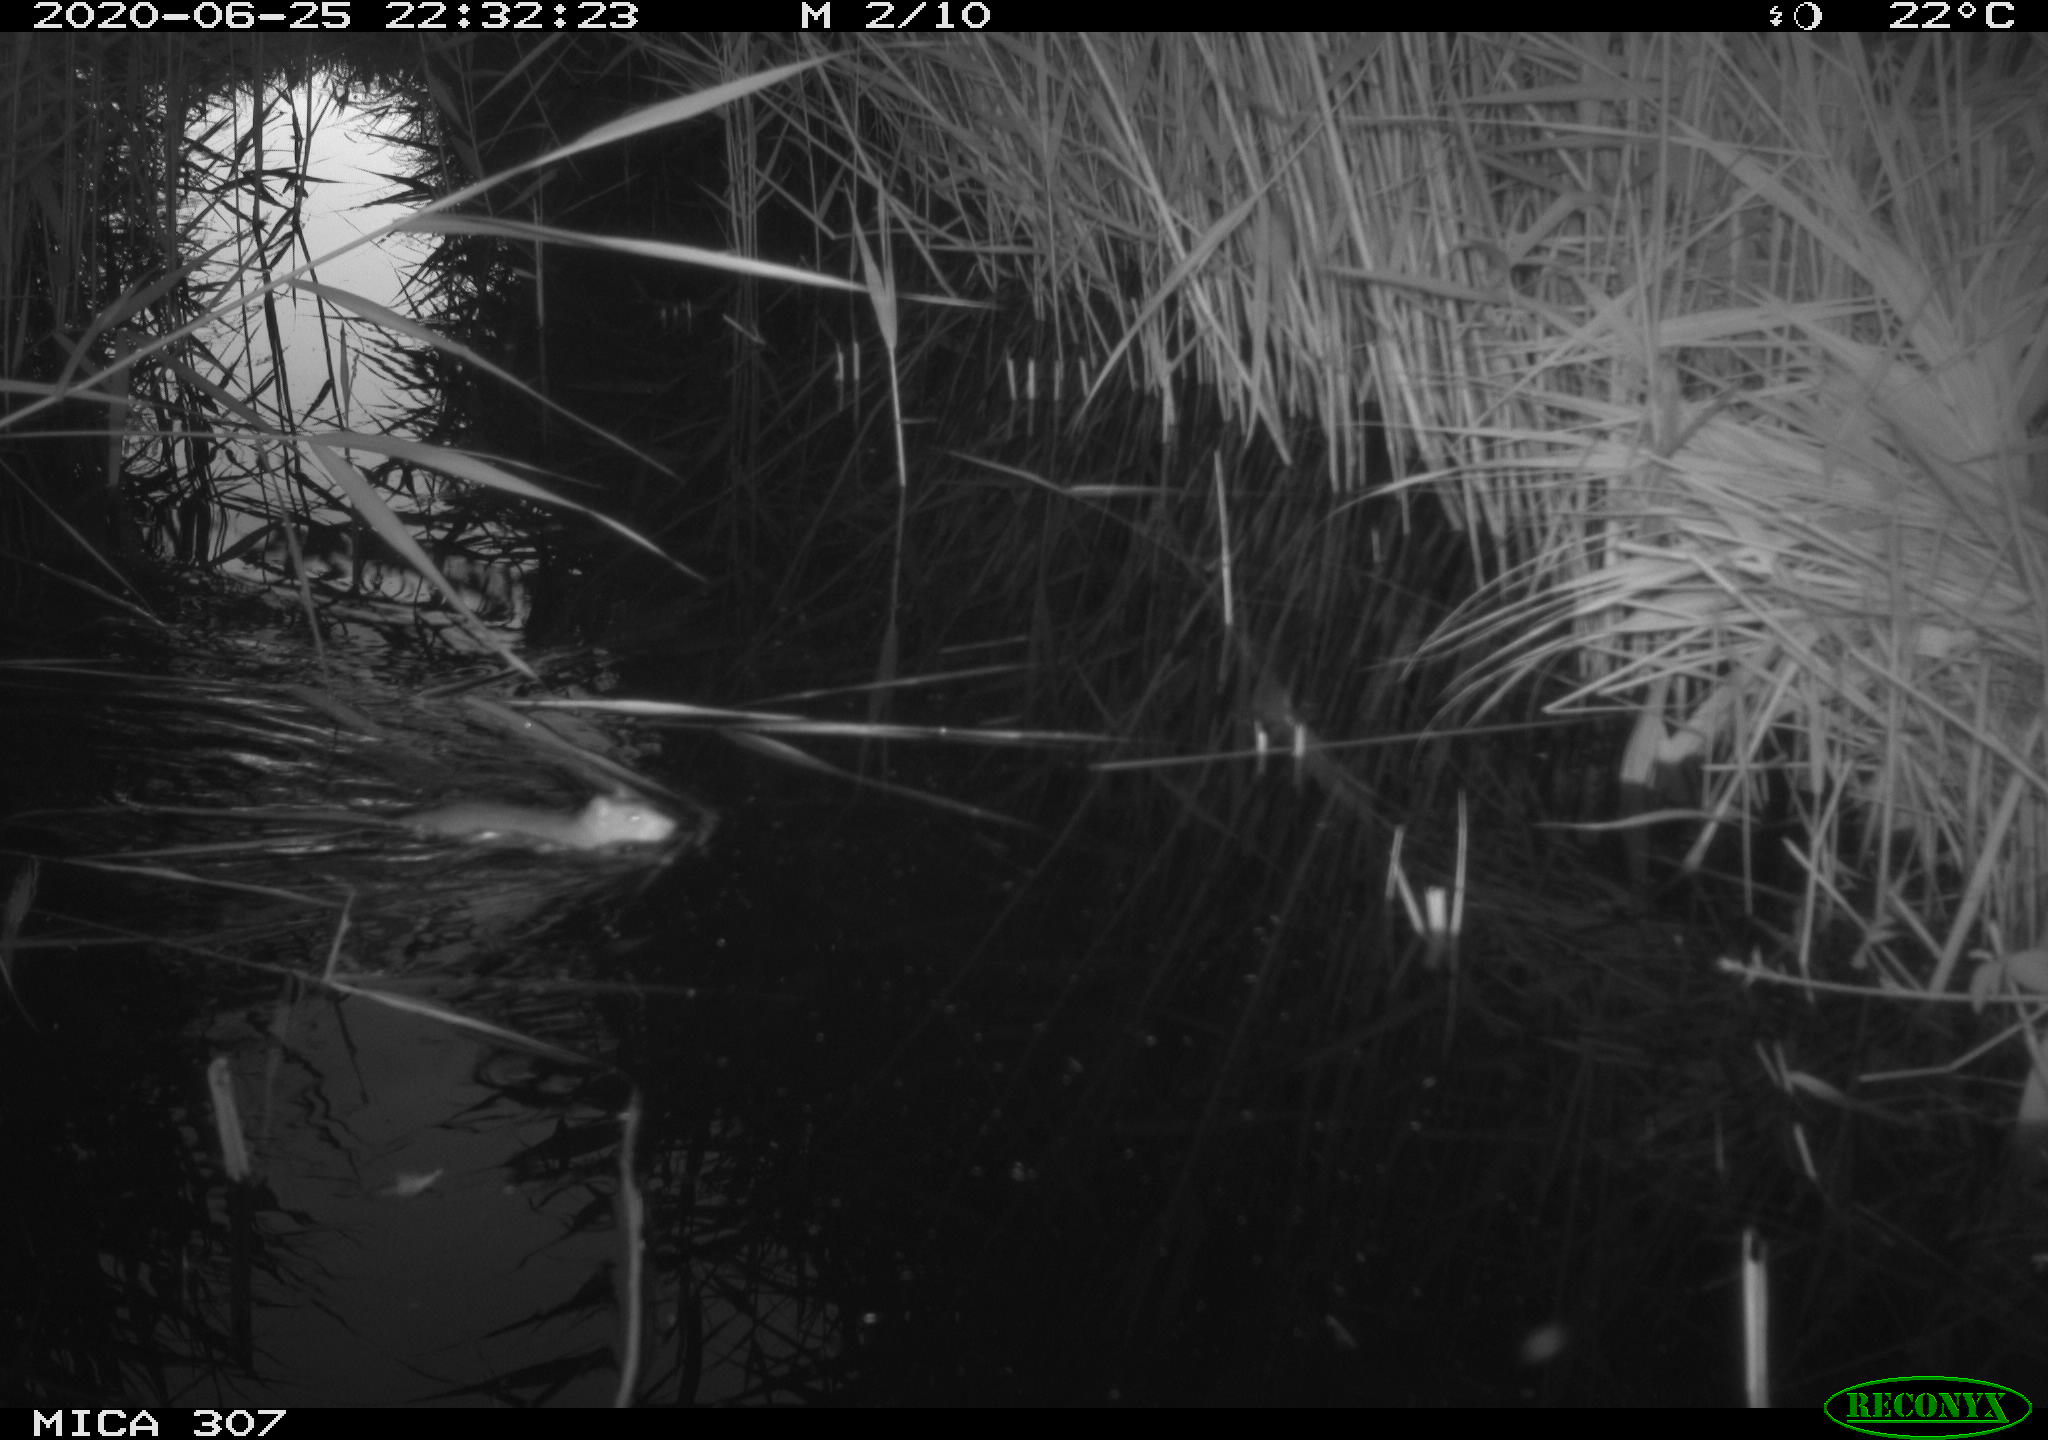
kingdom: Animalia
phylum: Chordata
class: Mammalia
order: Rodentia
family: Muridae
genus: Rattus
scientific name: Rattus norvegicus
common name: Brown rat
